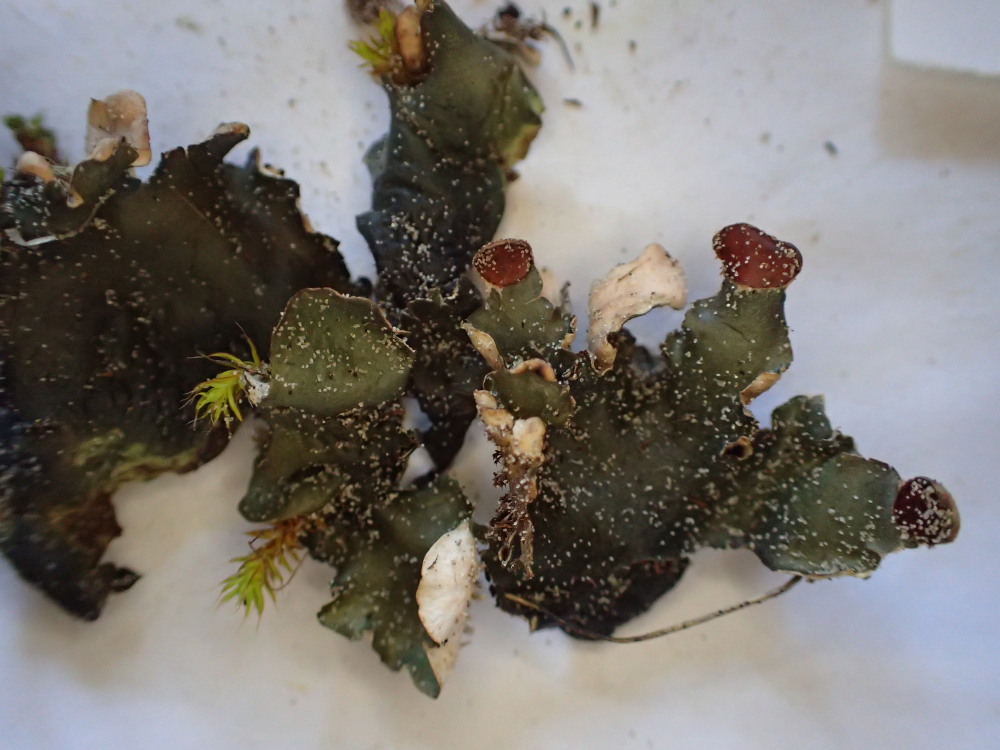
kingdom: Fungi
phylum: Ascomycota
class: Lecanoromycetes
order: Peltigerales
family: Peltigeraceae
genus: Peltigera
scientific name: Peltigera hymenina
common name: hinde-skjoldlav
